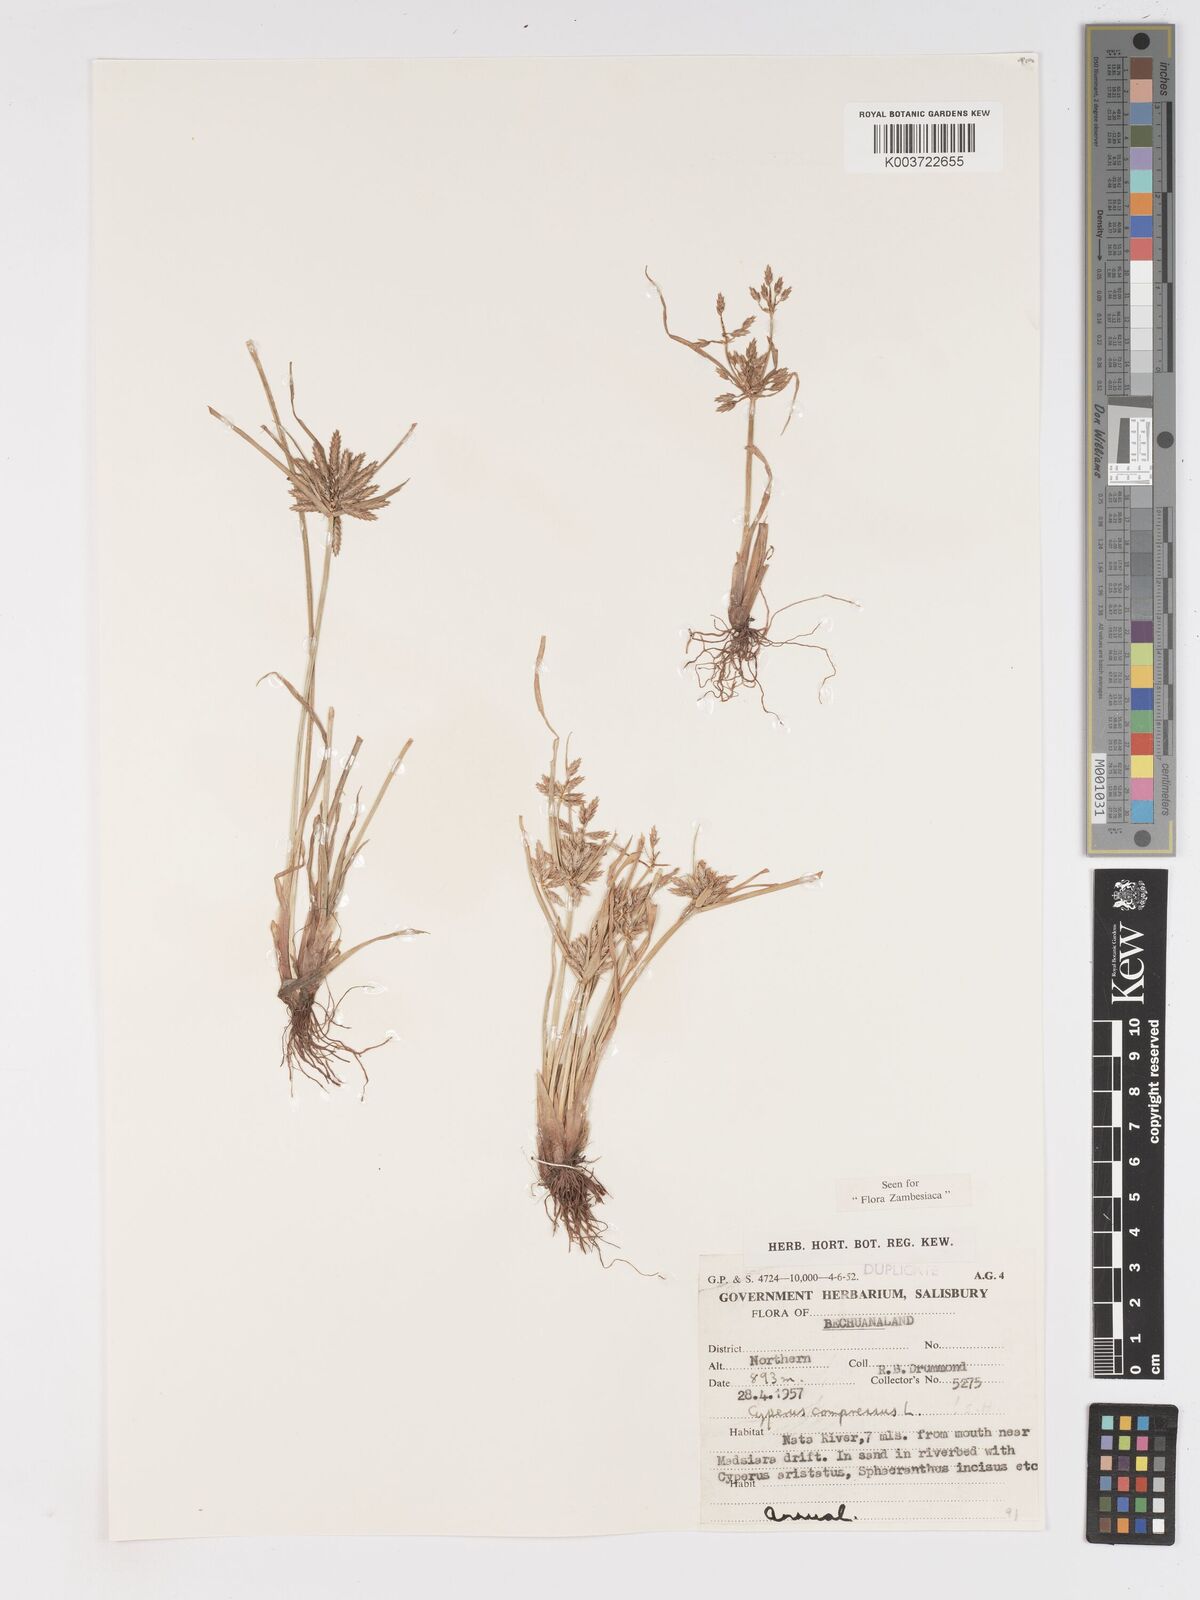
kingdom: Plantae
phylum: Tracheophyta
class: Liliopsida
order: Poales
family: Cyperaceae
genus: Cyperus
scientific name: Cyperus compressus
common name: Poorland flatsedge
